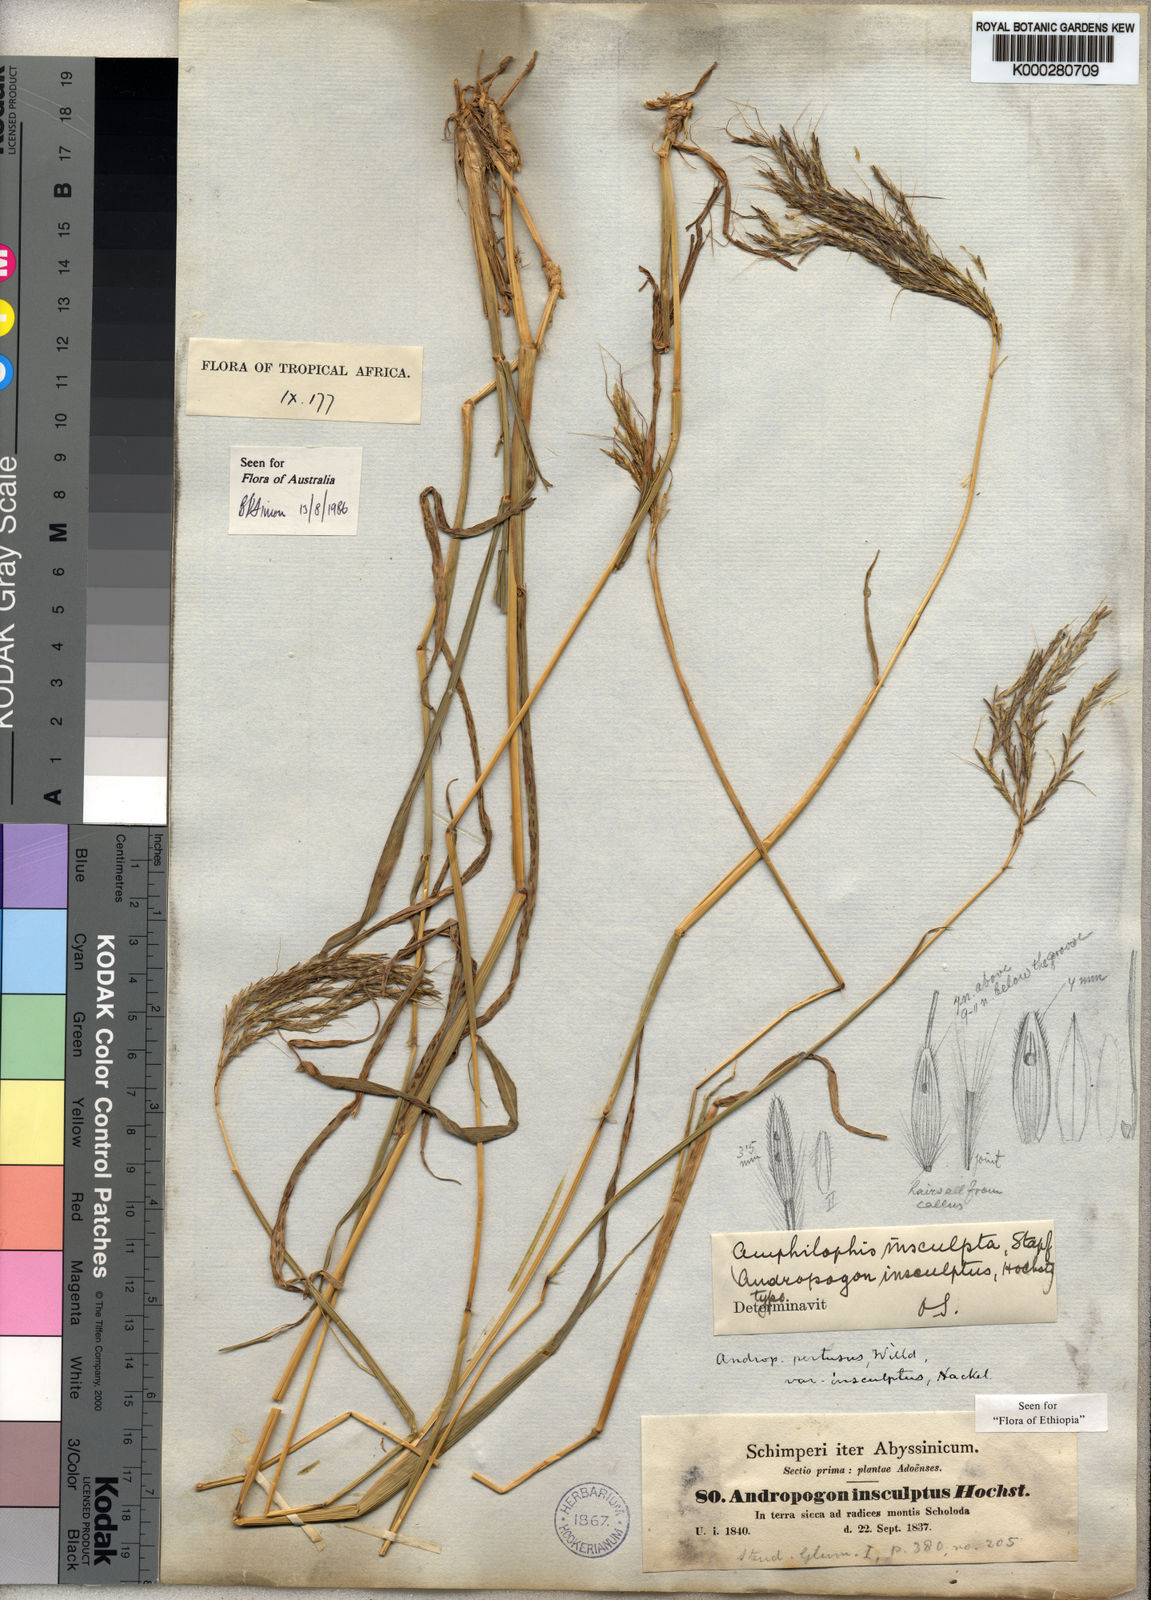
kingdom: Plantae
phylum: Tracheophyta
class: Liliopsida
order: Poales
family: Poaceae
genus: Bothriochloa
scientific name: Bothriochloa insculpta
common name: Creeping-bluegrass
